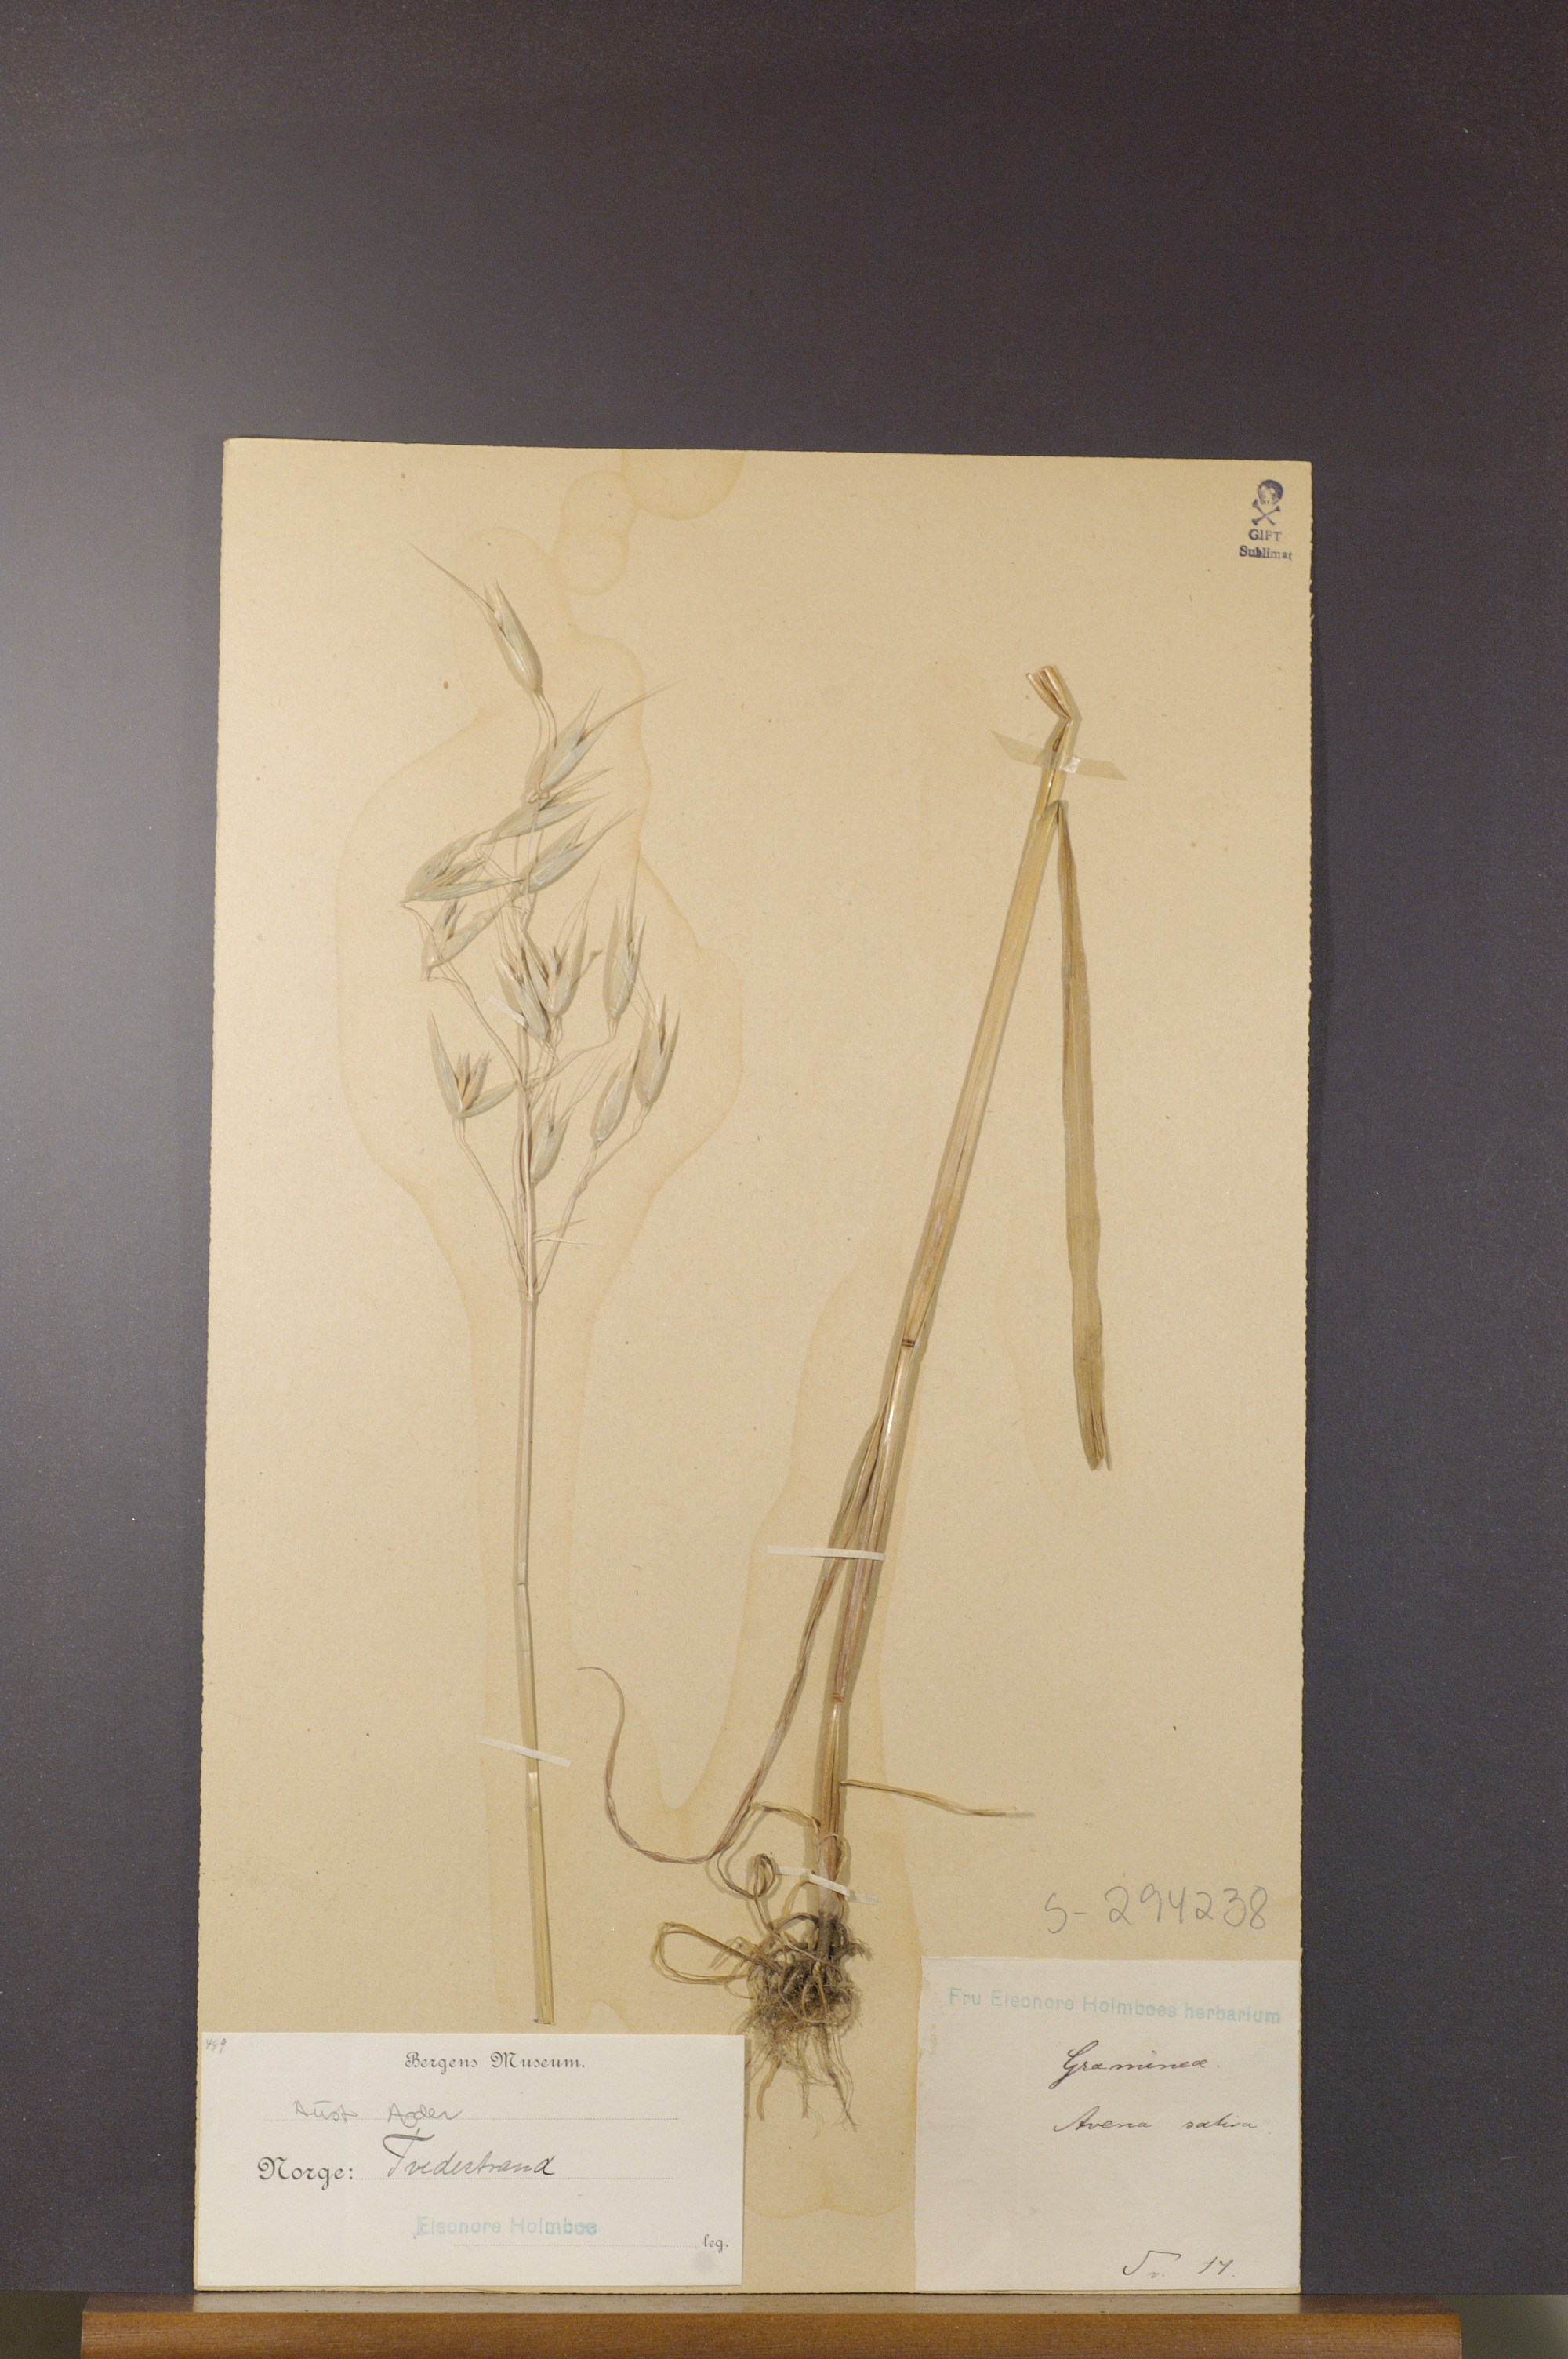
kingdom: Plantae
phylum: Tracheophyta
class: Liliopsida
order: Poales
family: Poaceae
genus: Avena
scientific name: Avena sativa
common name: Oat
